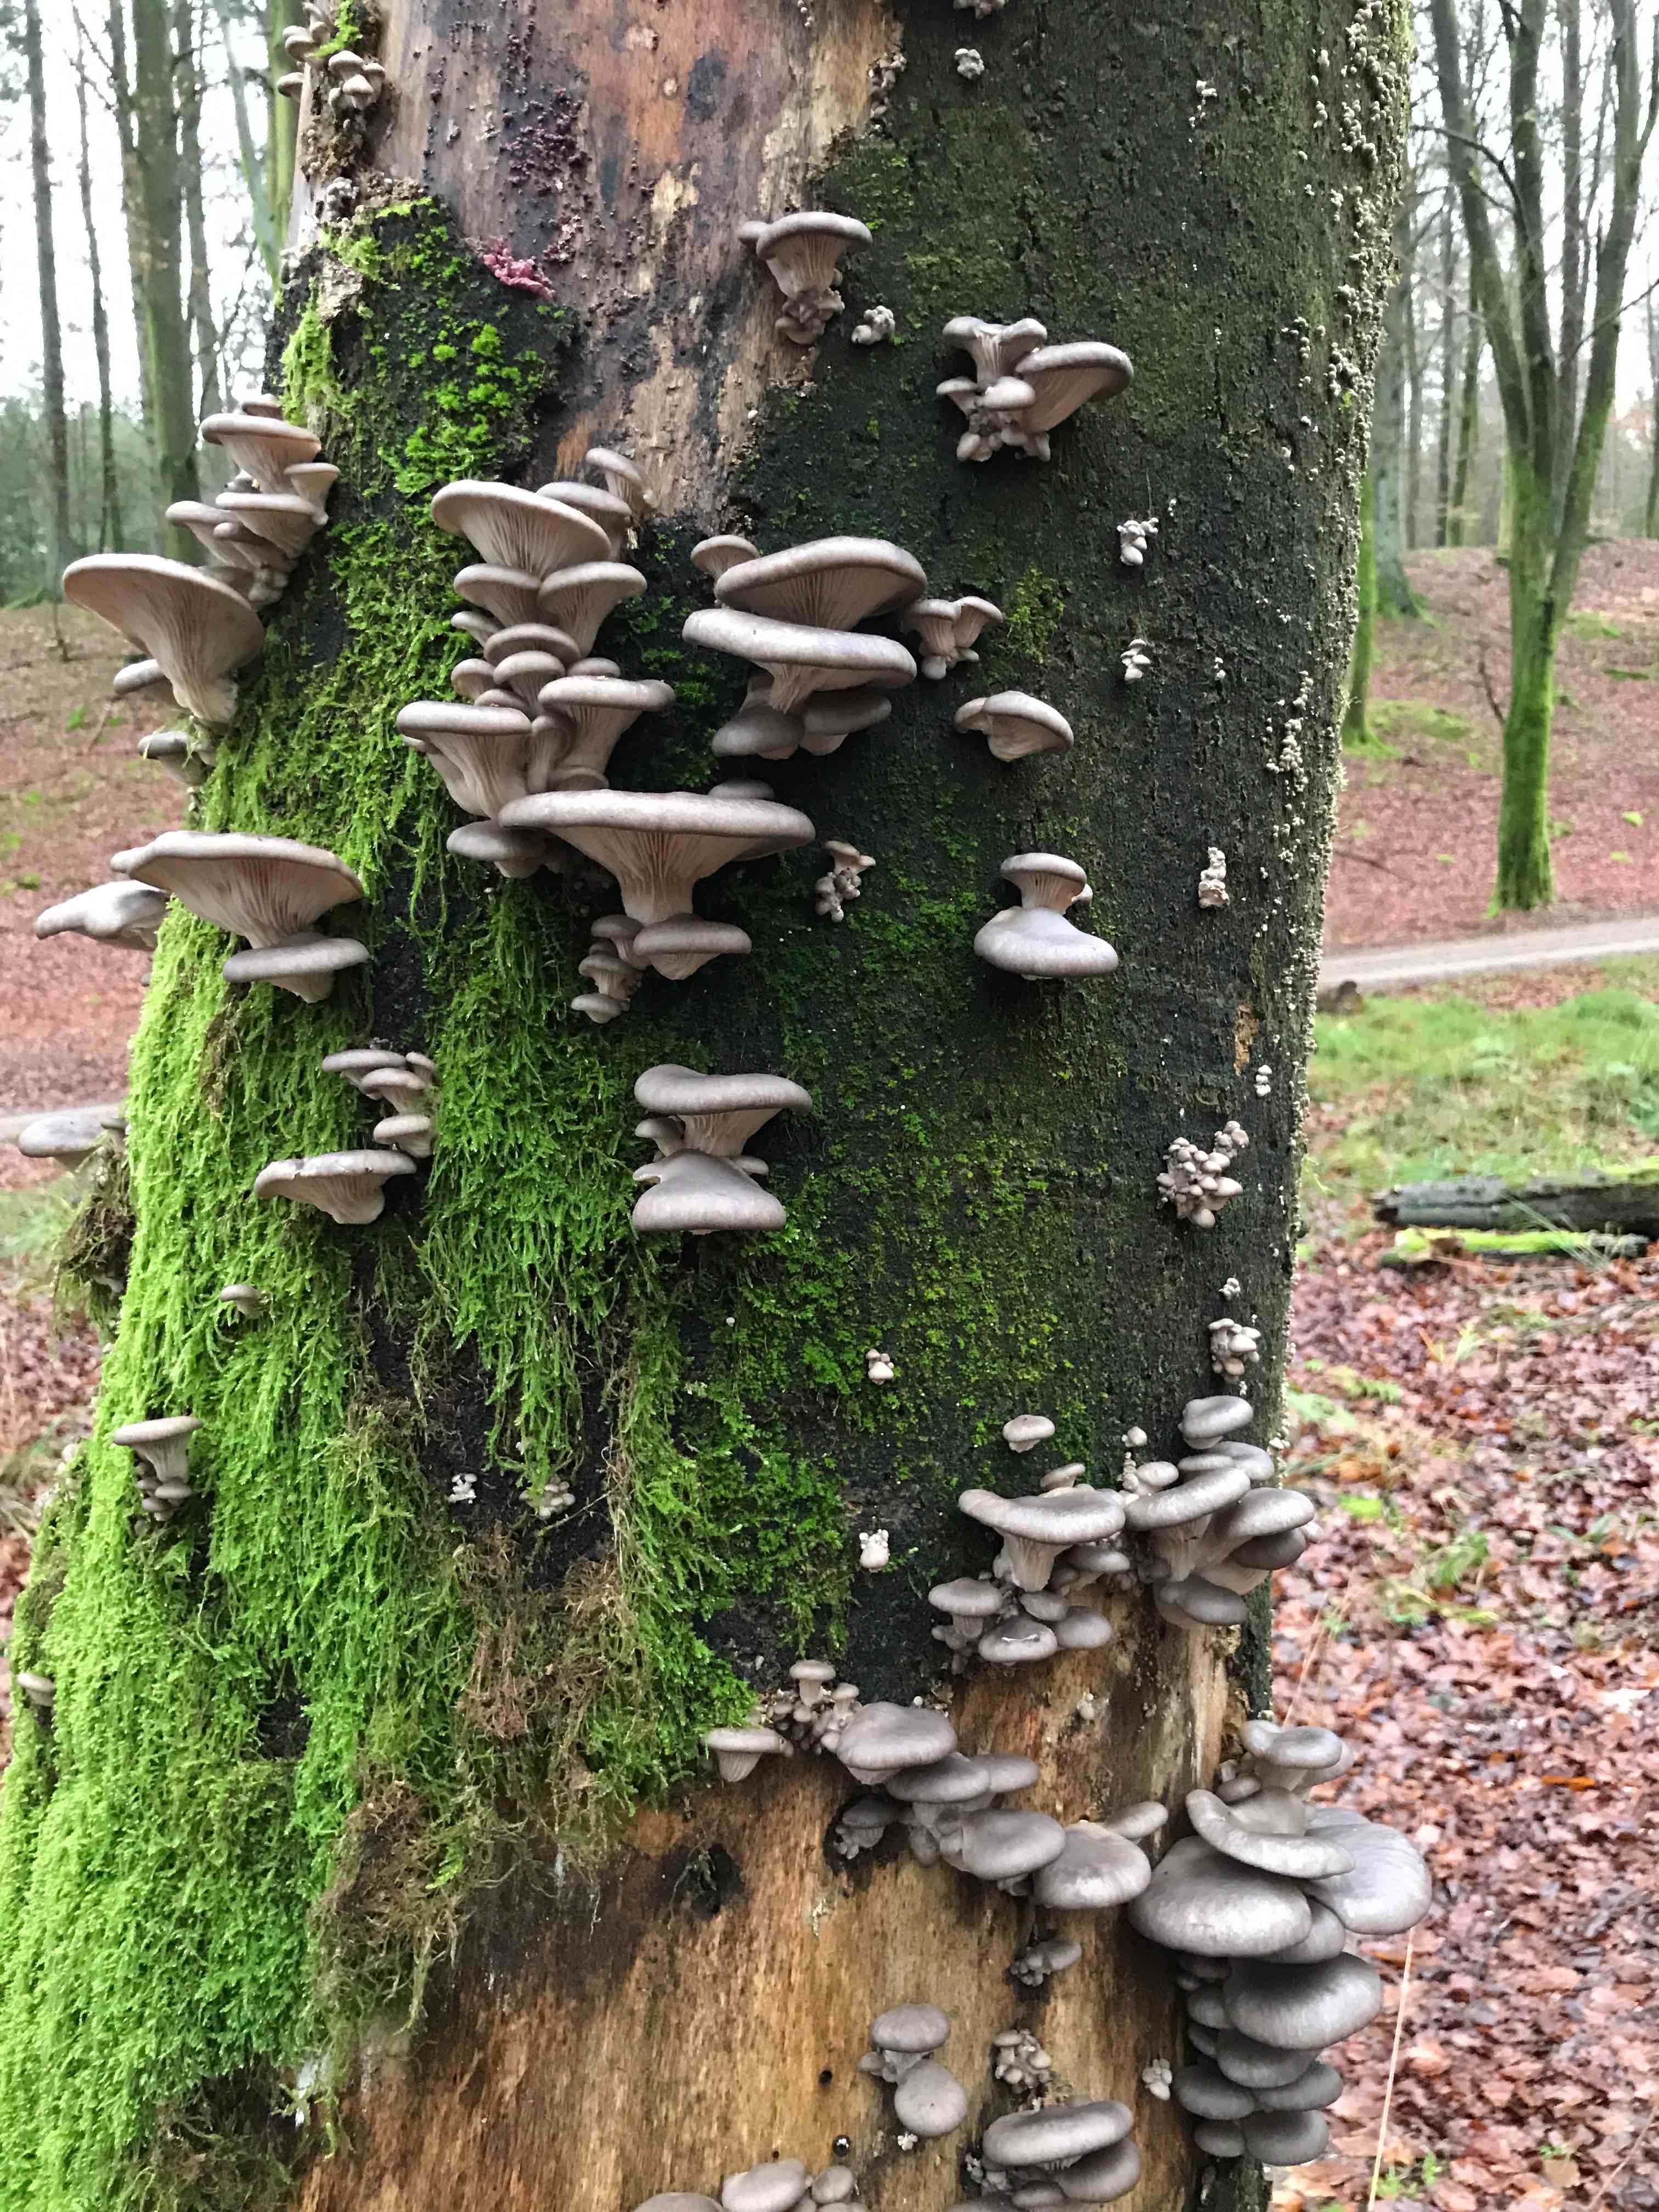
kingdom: Fungi
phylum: Basidiomycota
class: Agaricomycetes
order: Agaricales
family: Pleurotaceae
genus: Pleurotus
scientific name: Pleurotus ostreatus
